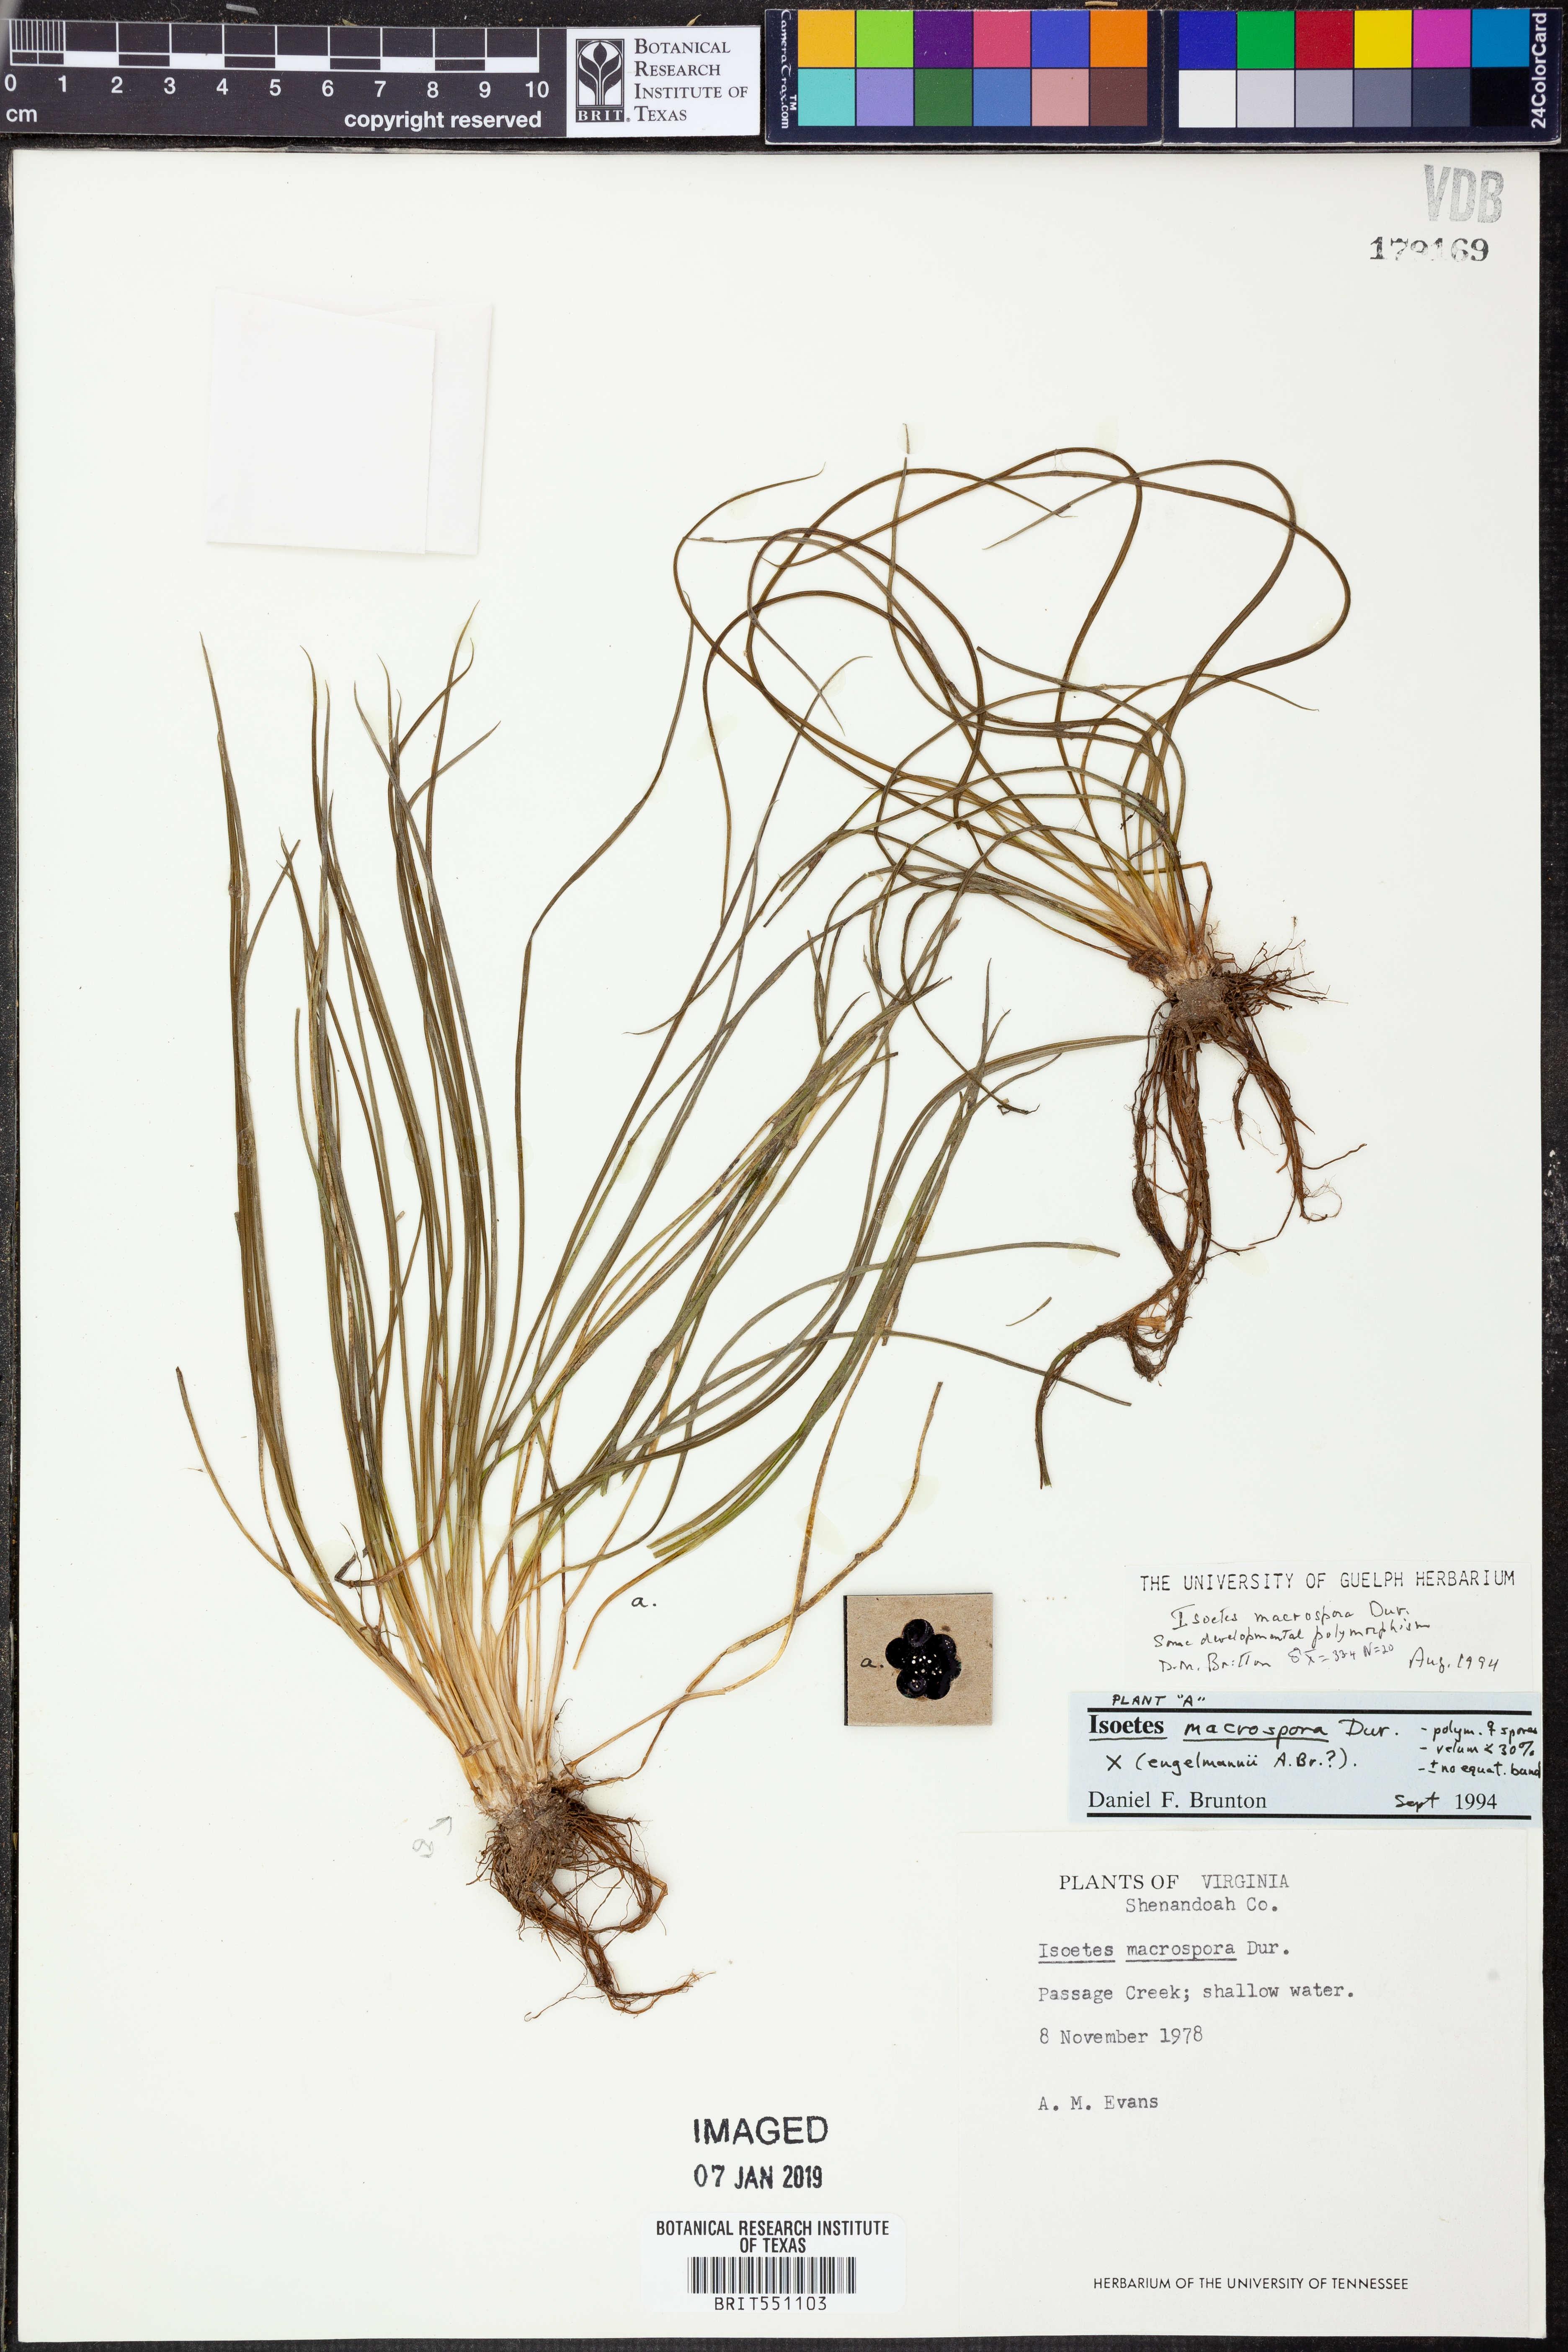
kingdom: Plantae
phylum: Tracheophyta
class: Lycopodiopsida
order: Isoetales
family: Isoetaceae
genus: Isoetes
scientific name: Isoetes lacustris
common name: Common quillwort
